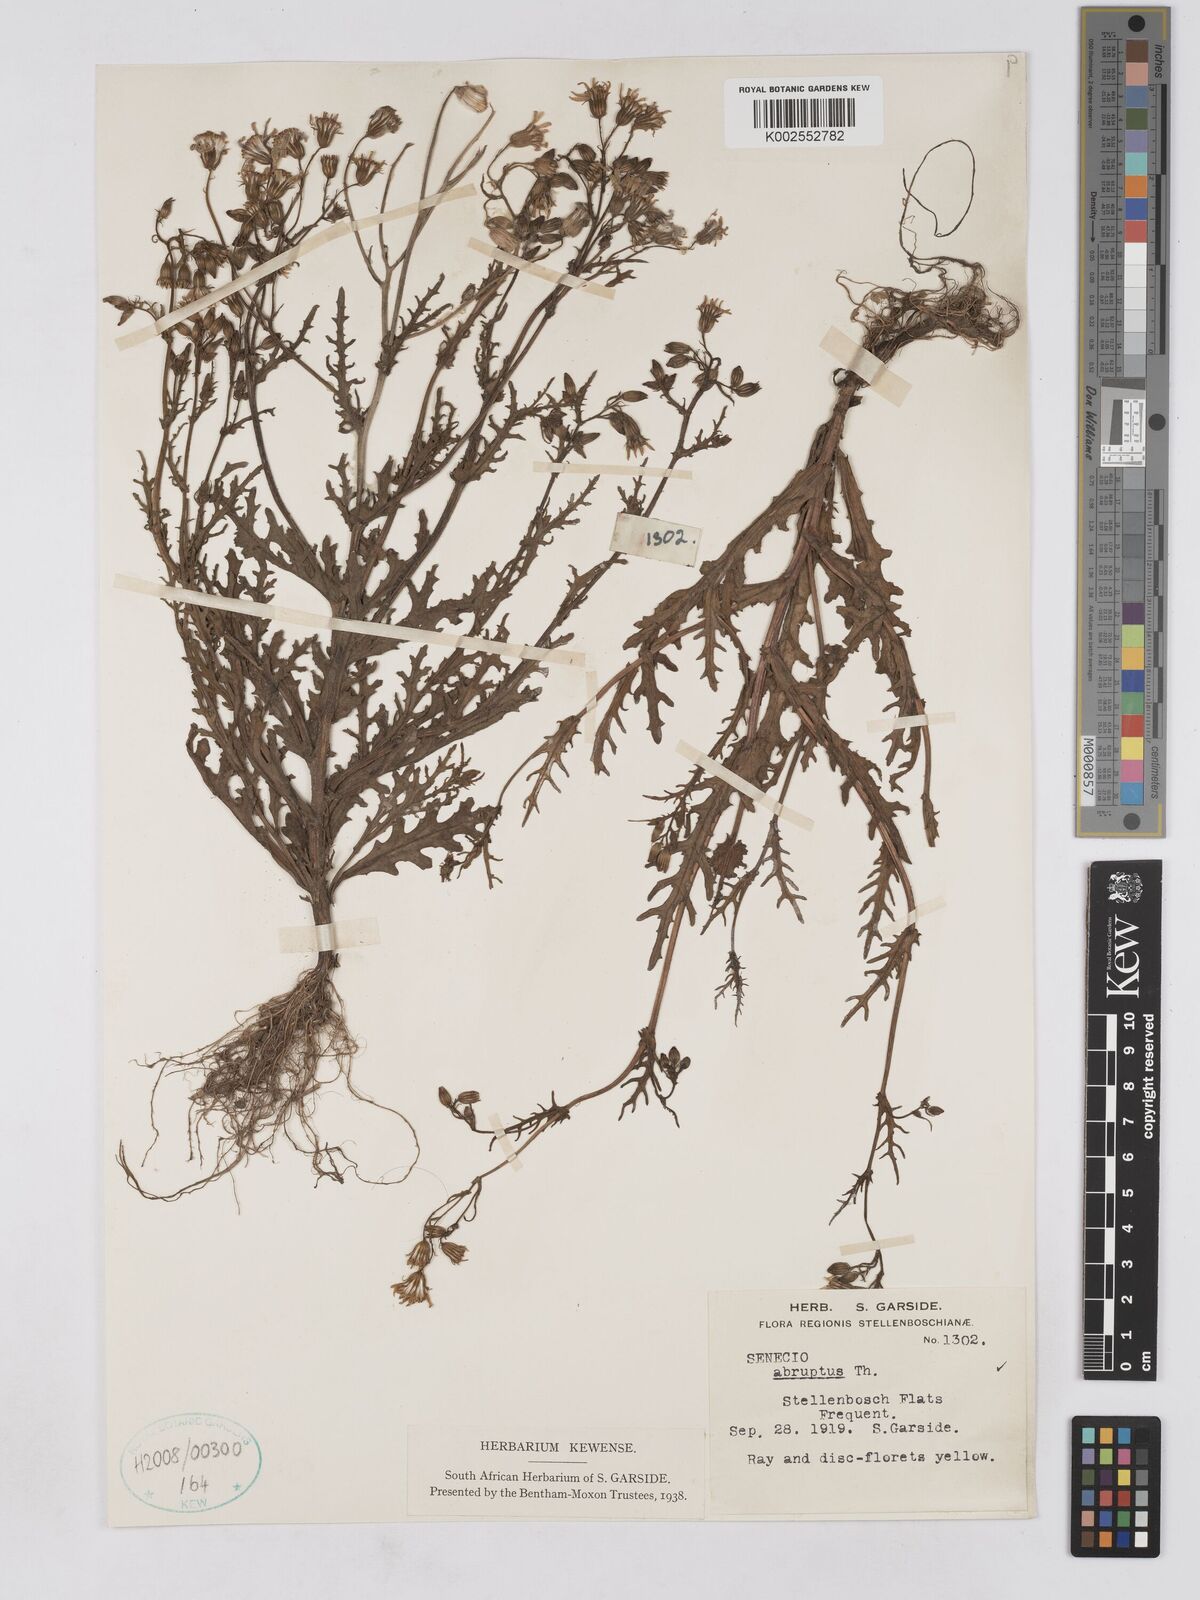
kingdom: Plantae
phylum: Tracheophyta
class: Magnoliopsida
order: Asterales
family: Asteraceae
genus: Senecio
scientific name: Senecio abruptus
